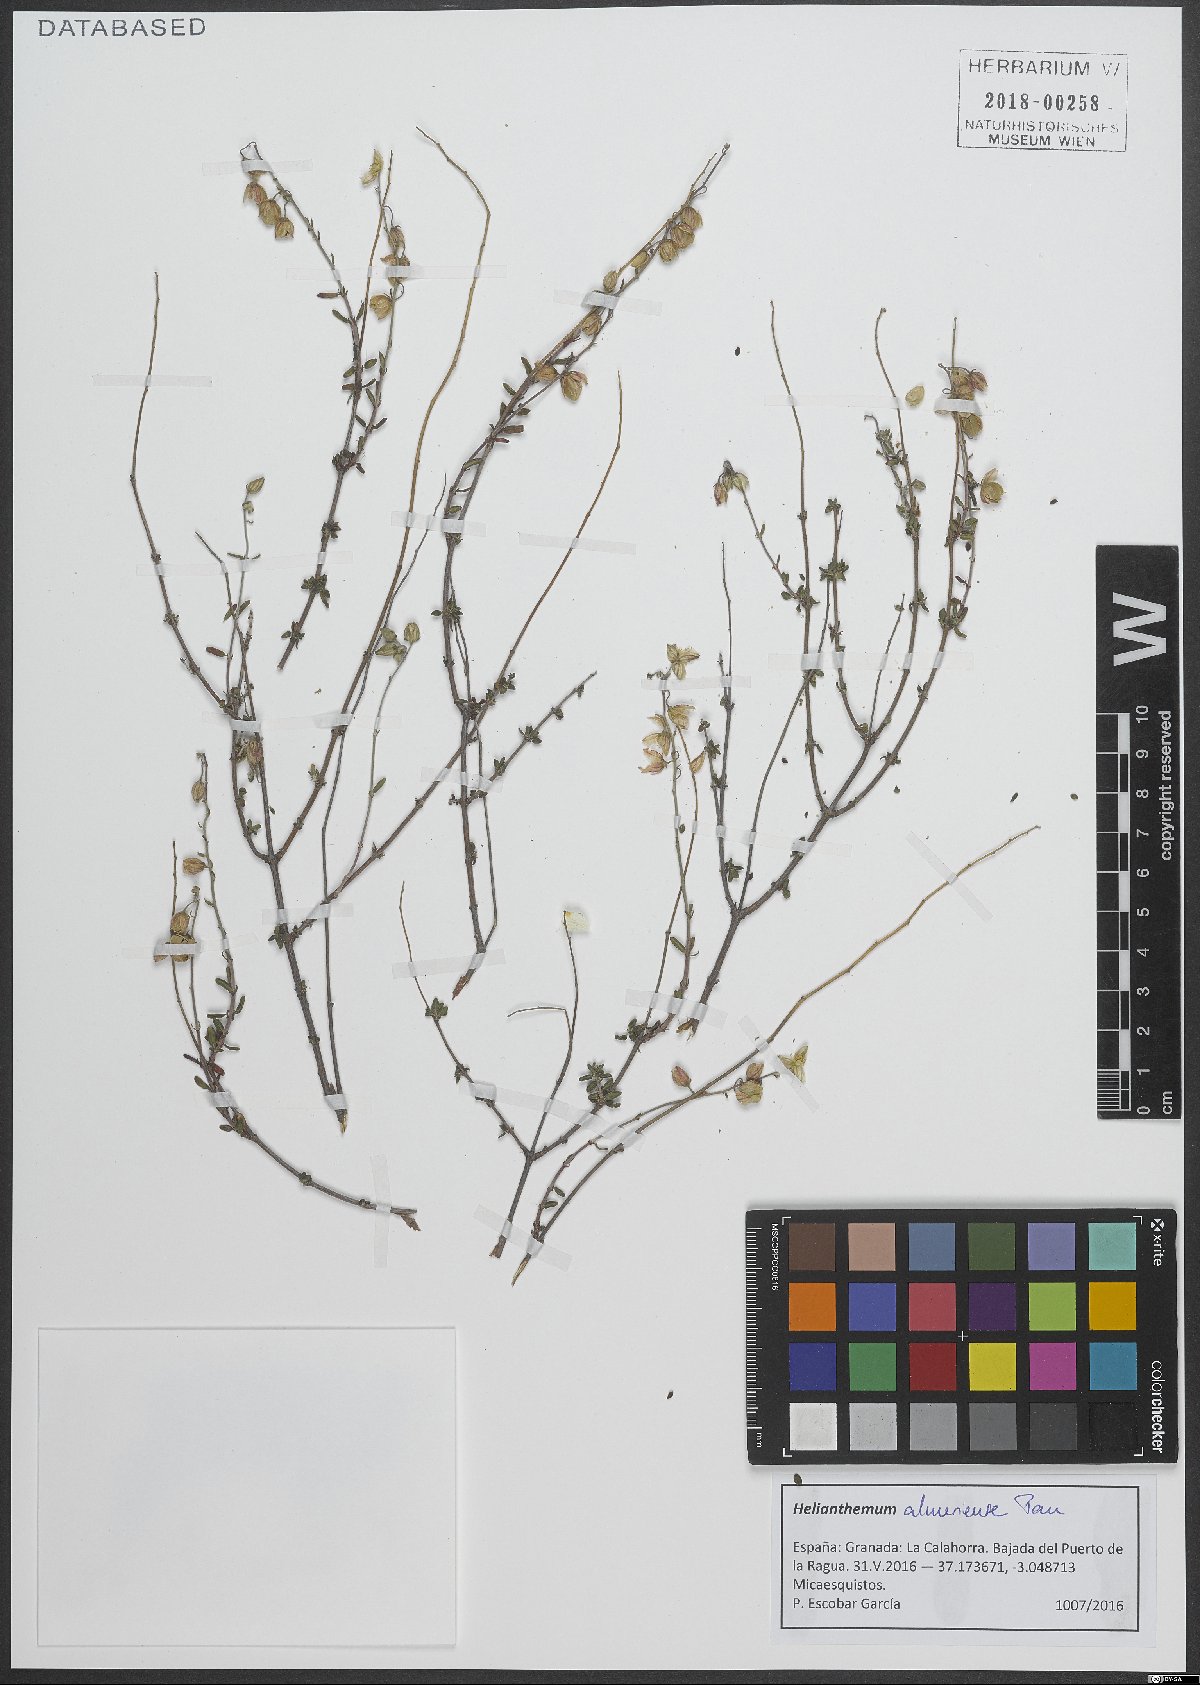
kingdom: Plantae
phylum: Tracheophyta
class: Magnoliopsida
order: Malvales
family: Cistaceae
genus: Helianthemum
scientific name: Helianthemum almeriense
